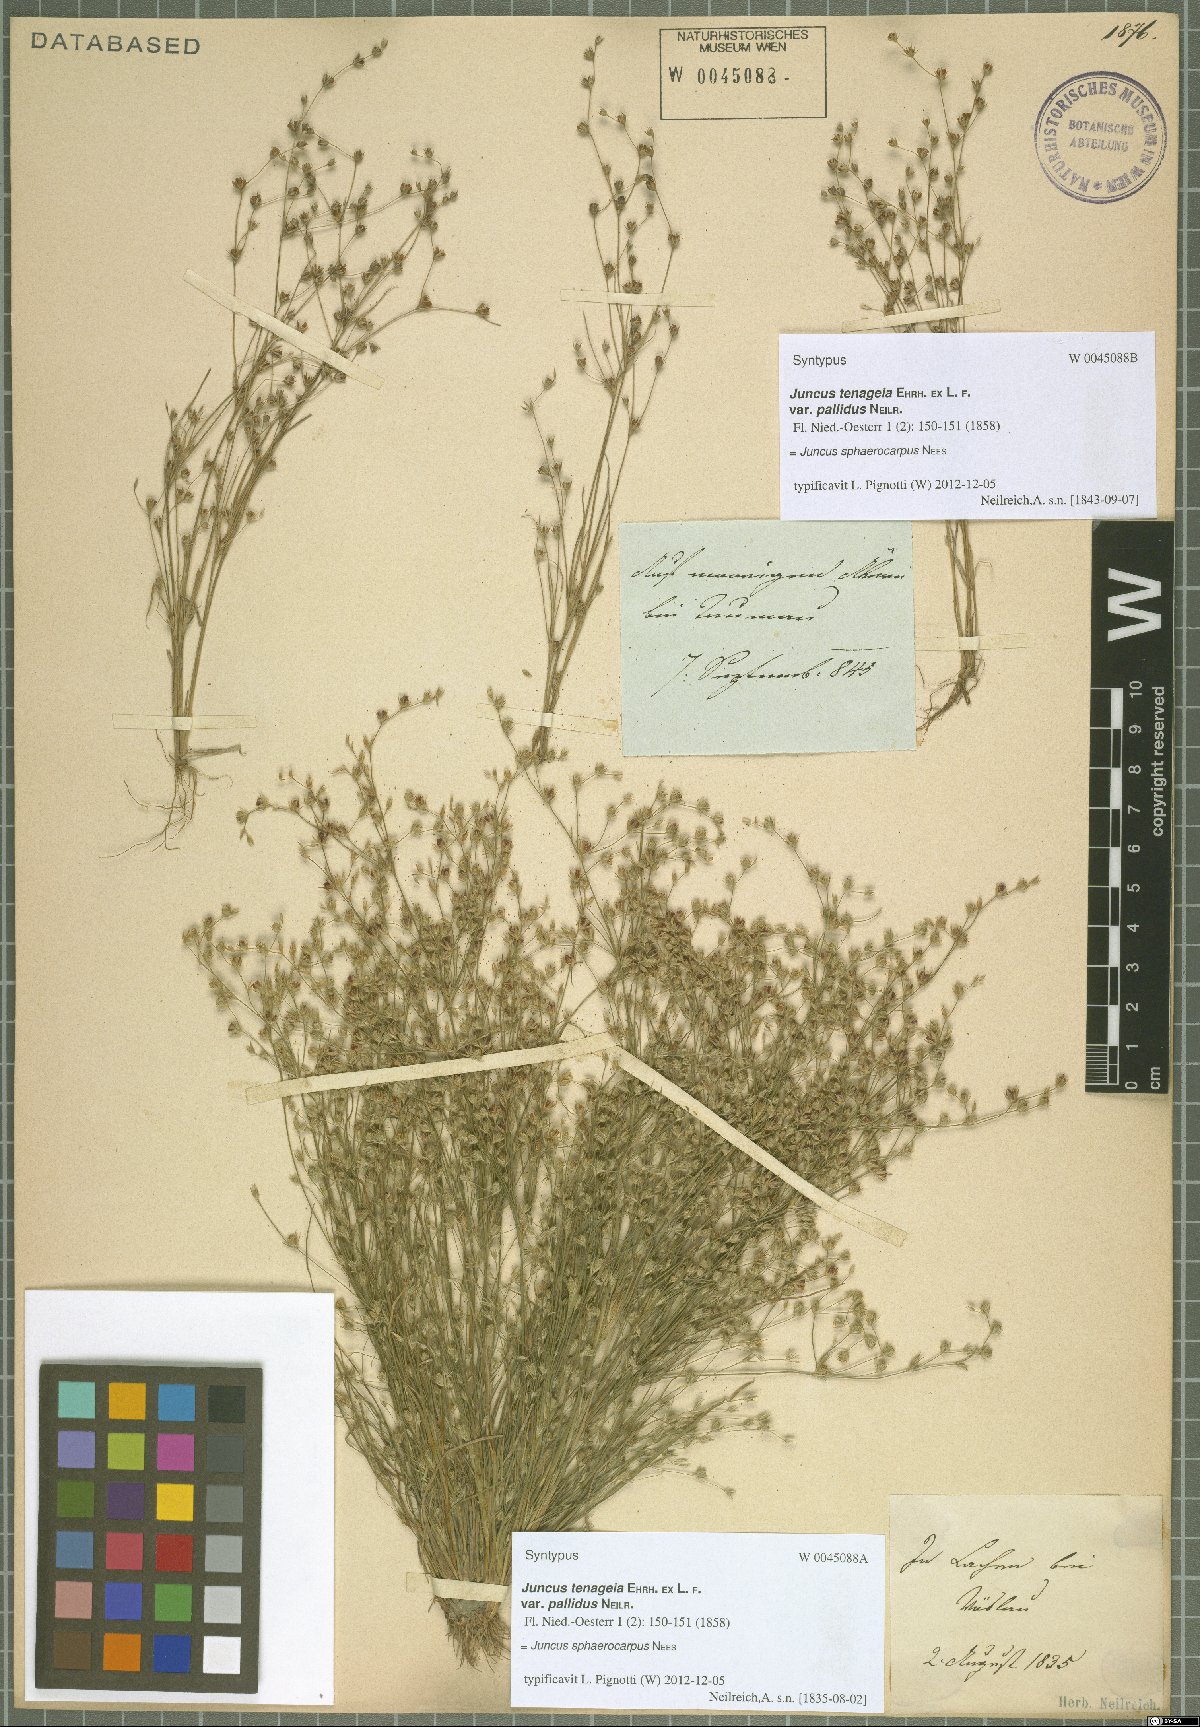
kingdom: Plantae
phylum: Tracheophyta
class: Liliopsida
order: Poales
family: Juncaceae
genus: Juncus
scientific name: Juncus sphaerocarpus
